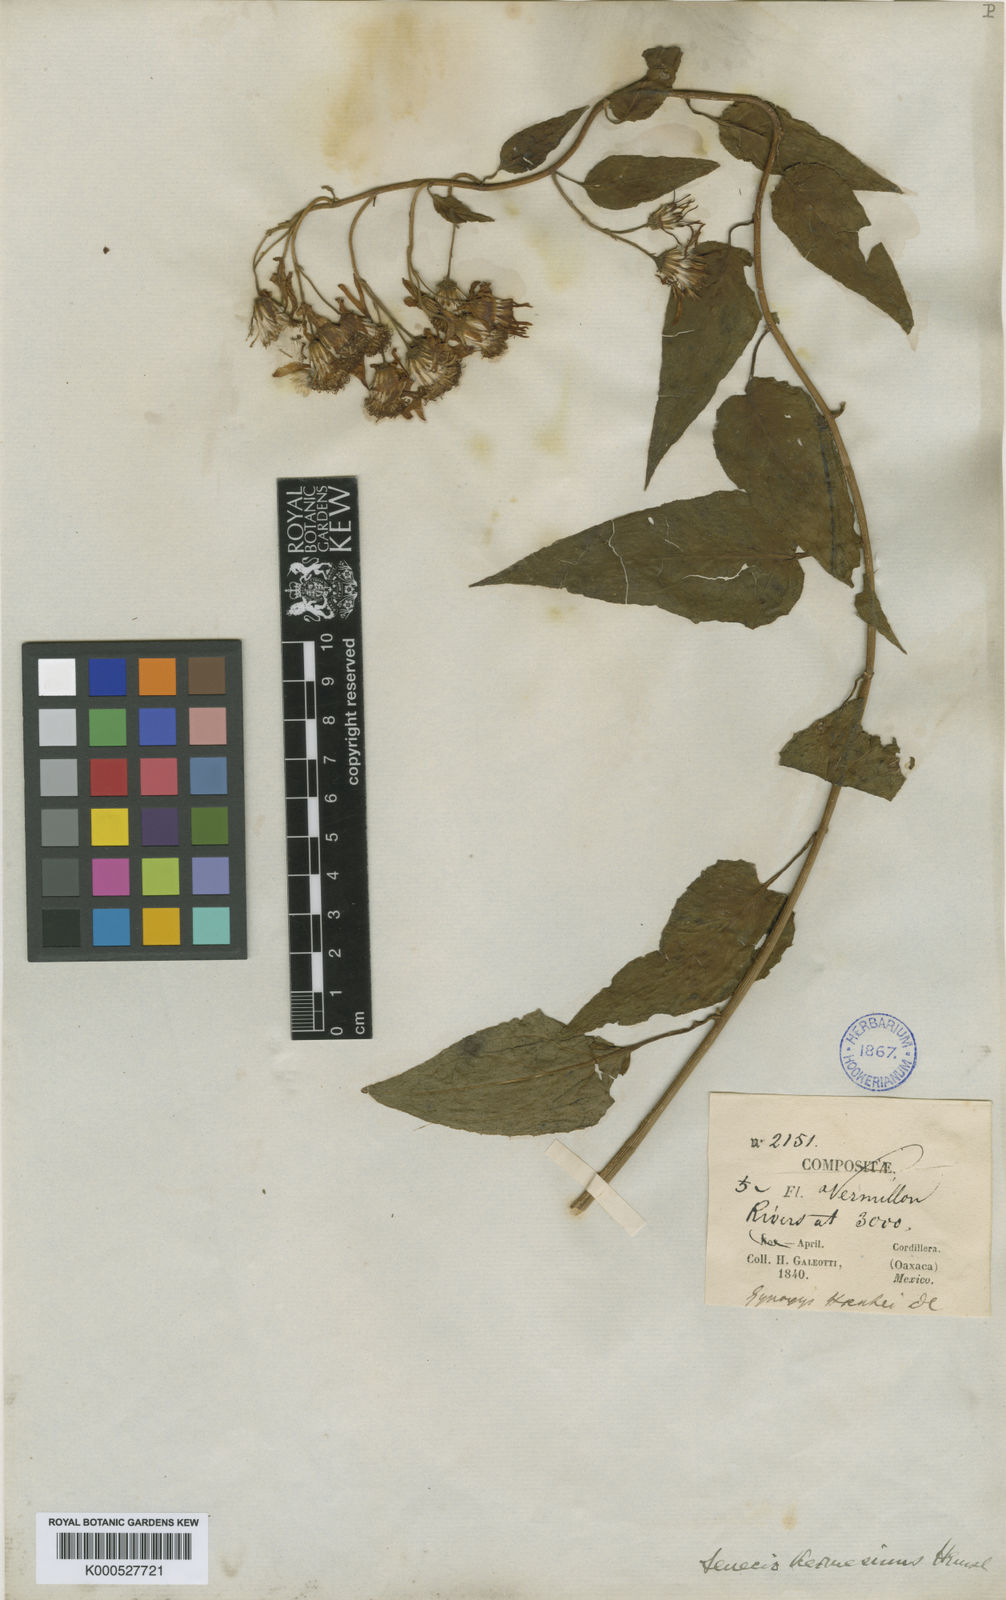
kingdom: Plantae
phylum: Tracheophyta
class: Magnoliopsida
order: Asterales
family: Asteraceae
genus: Pseudogynoxys
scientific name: Pseudogynoxys haenkei
